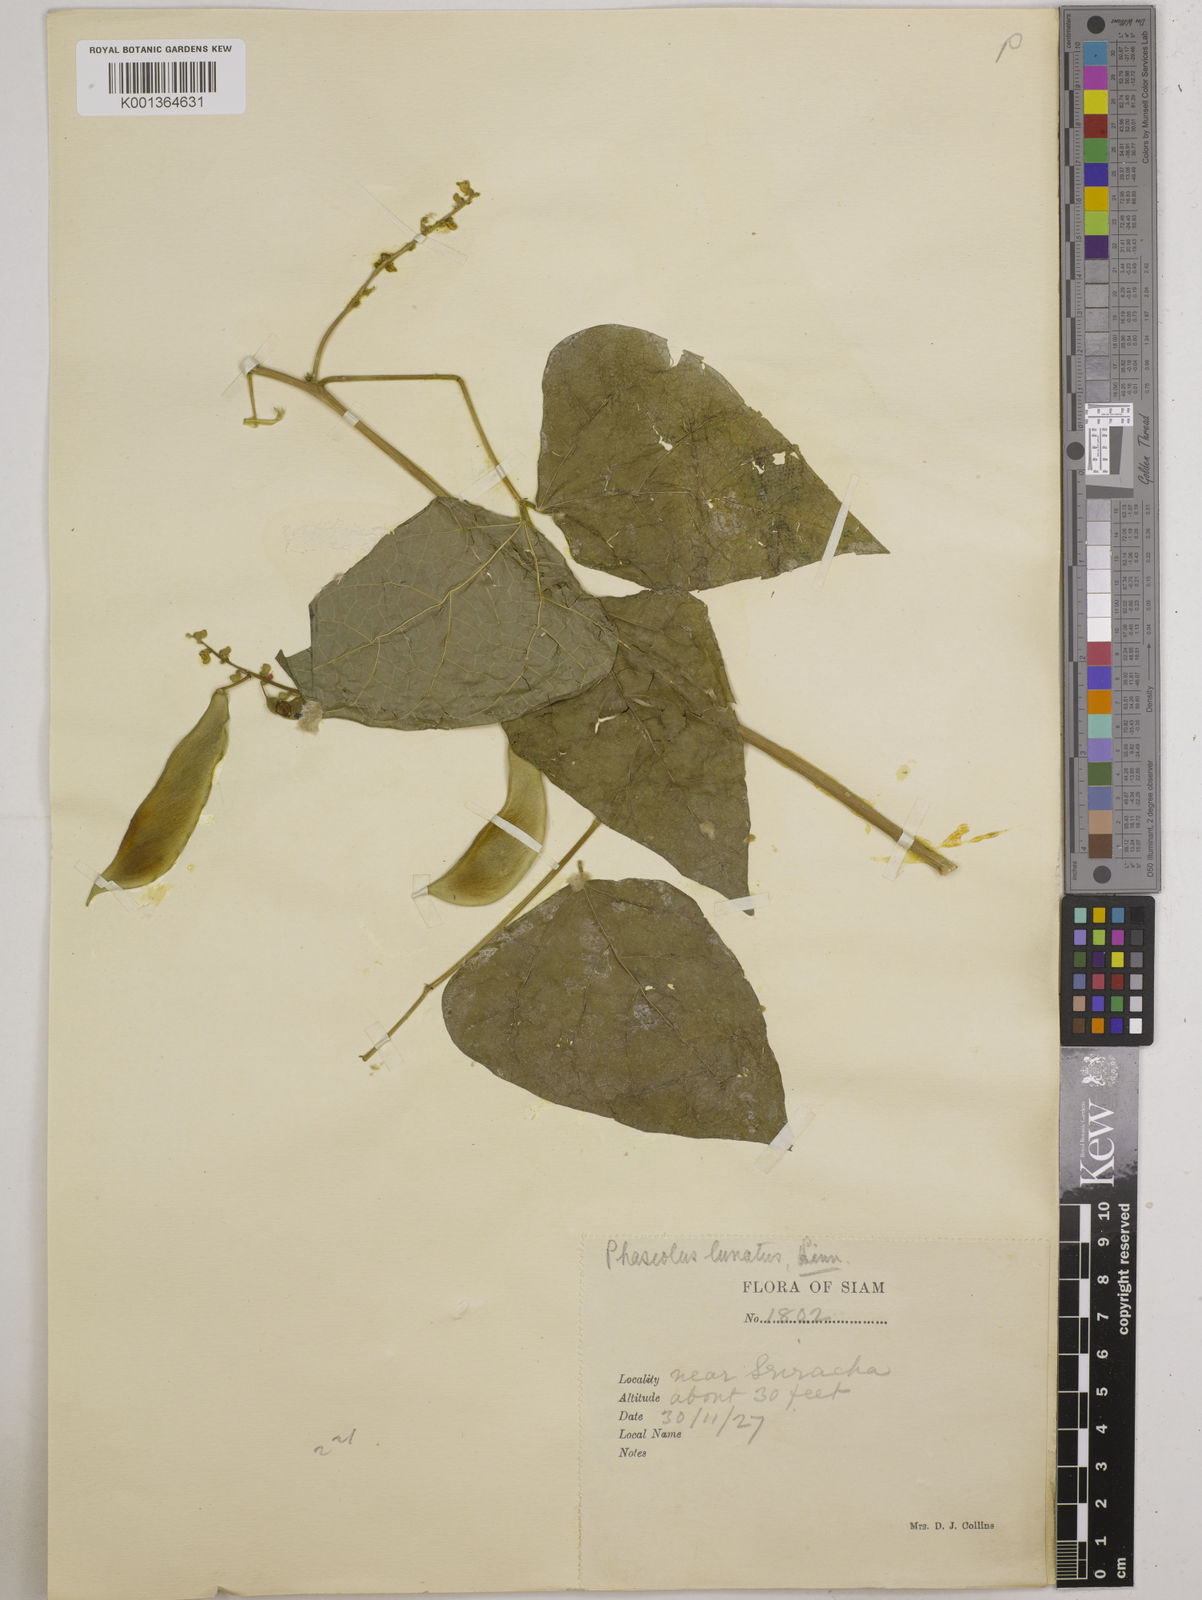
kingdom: Plantae
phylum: Tracheophyta
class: Magnoliopsida
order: Fabales
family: Fabaceae
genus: Phaseolus
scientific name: Phaseolus lunatus
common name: Sieva bean
